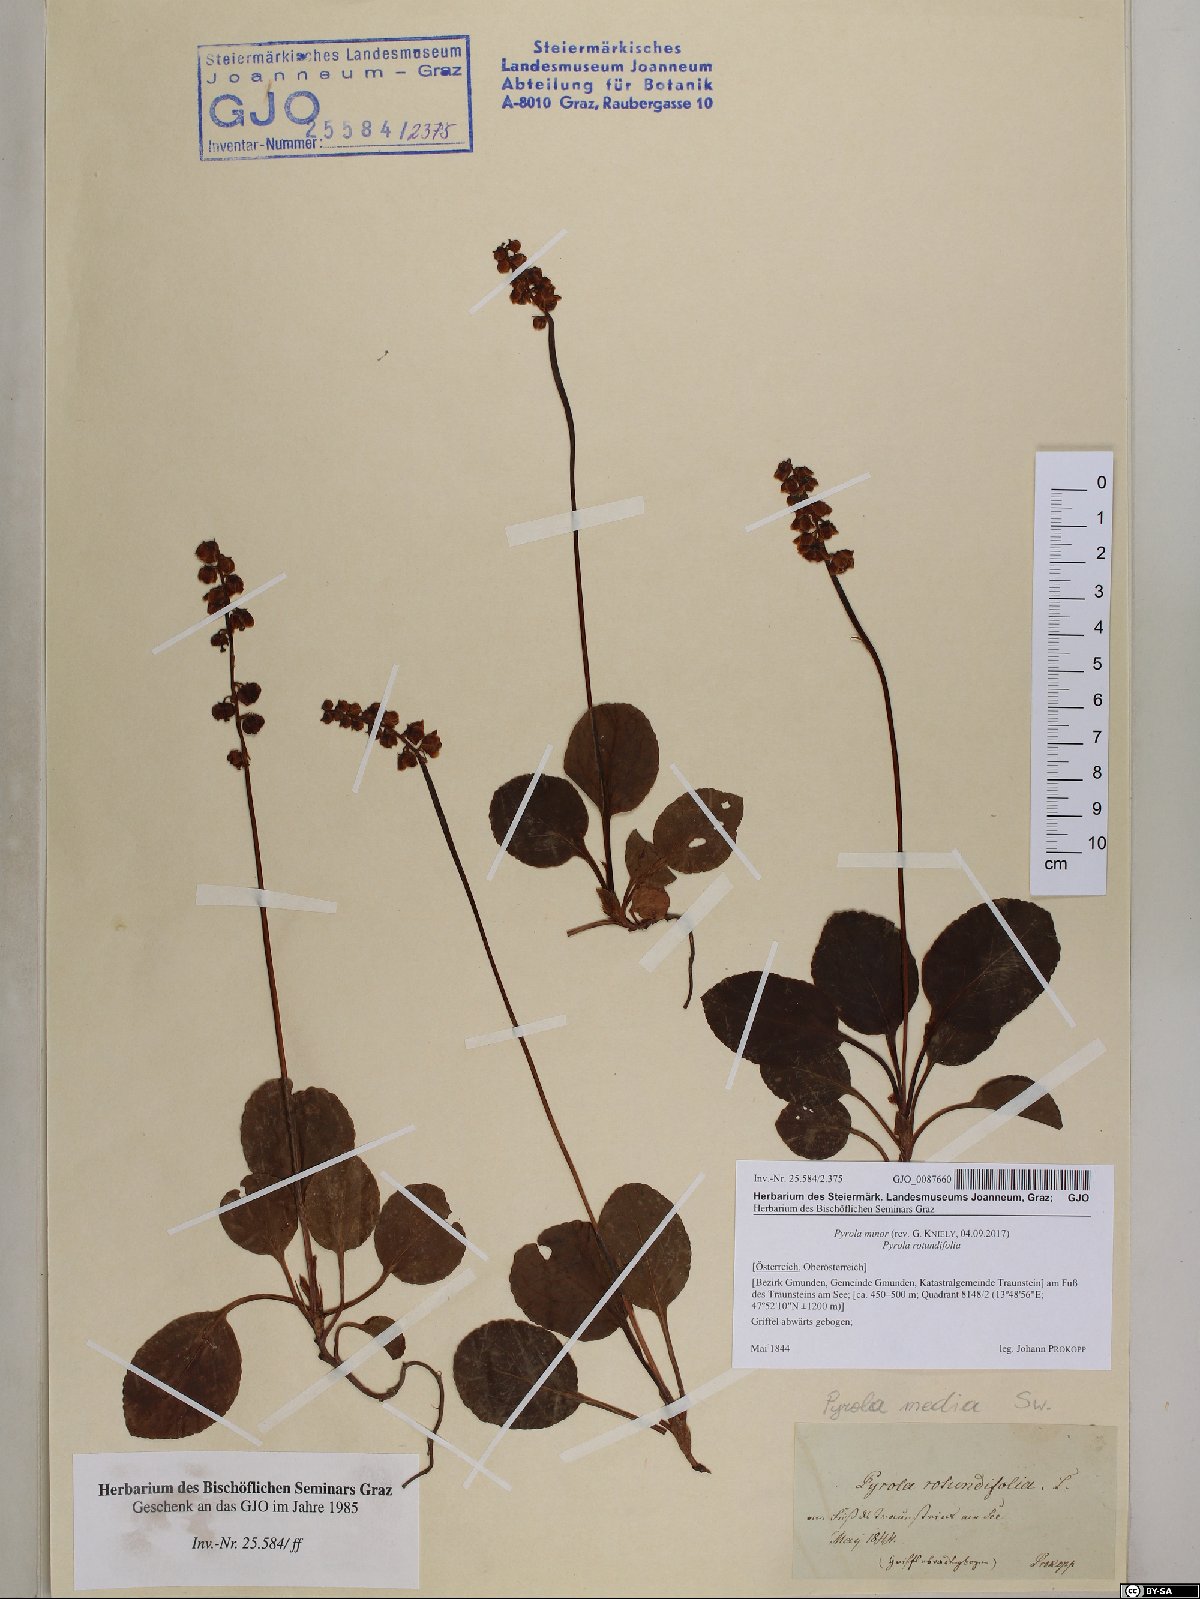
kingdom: Plantae
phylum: Tracheophyta
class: Magnoliopsida
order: Ericales
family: Ericaceae
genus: Pyrola
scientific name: Pyrola minor
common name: Common wintergreen
